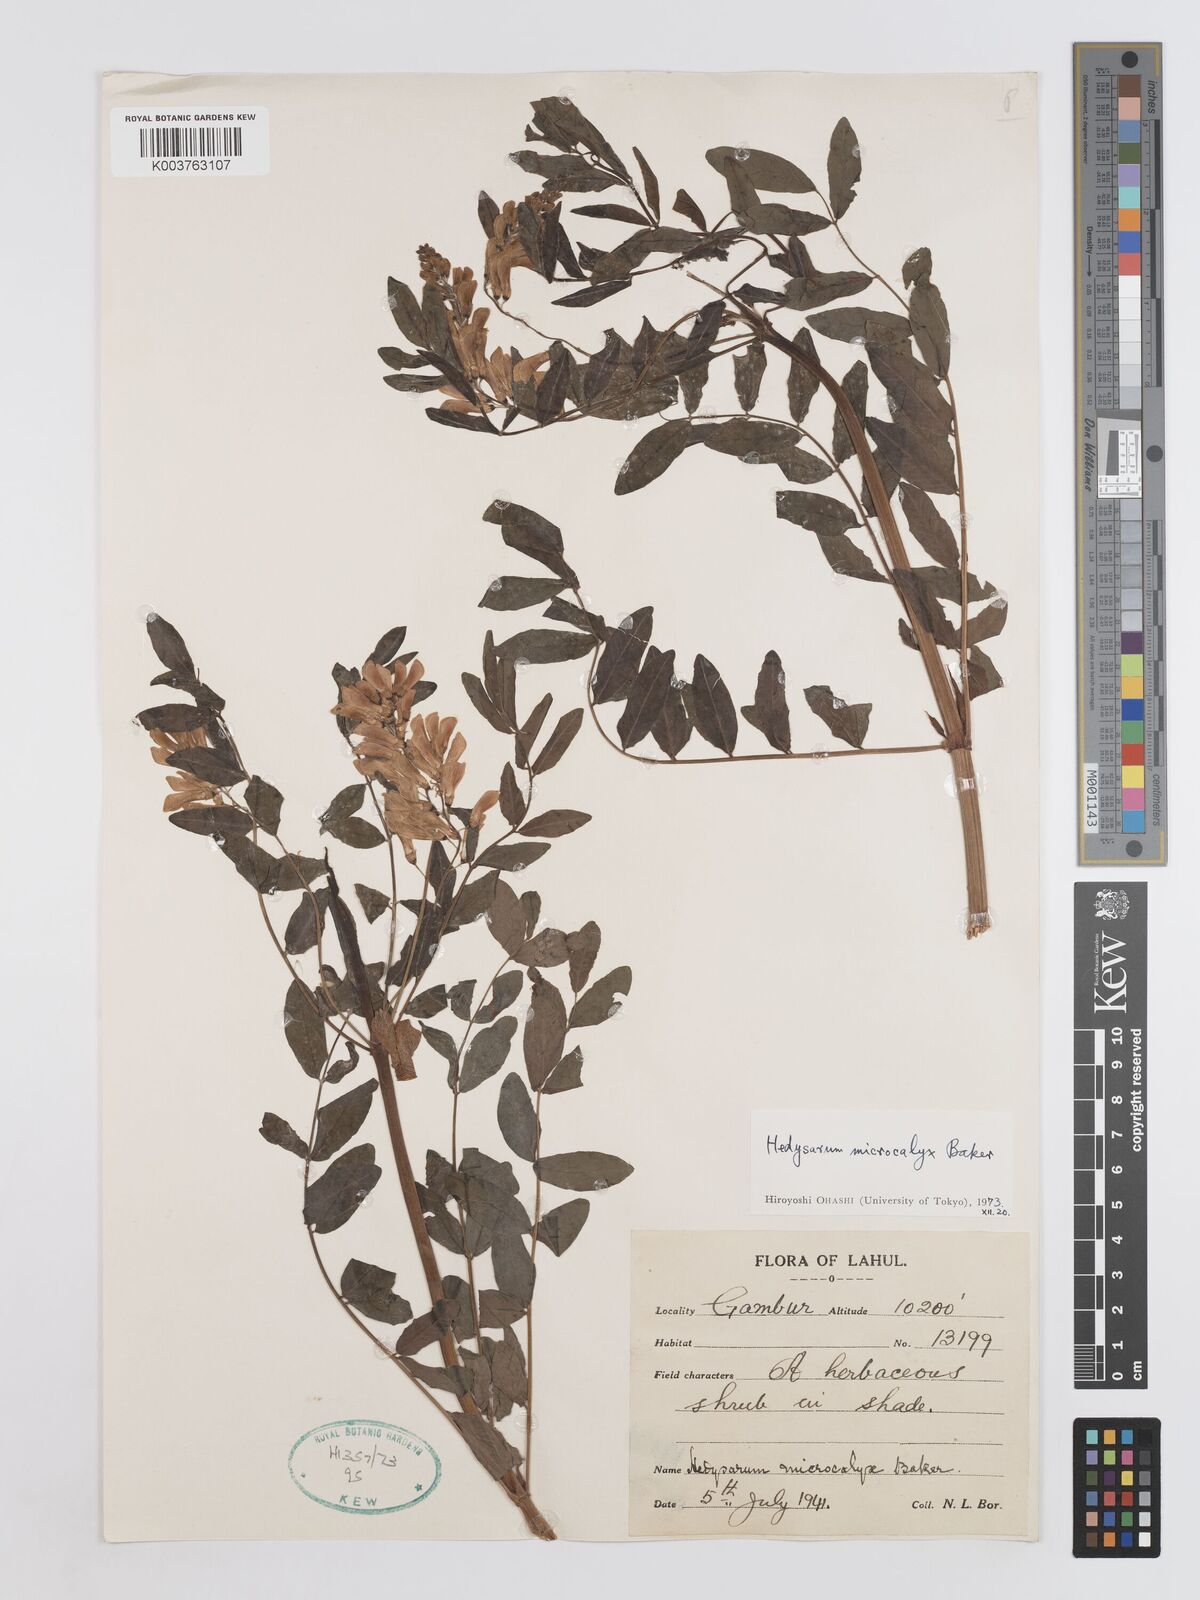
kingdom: Plantae
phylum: Tracheophyta
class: Magnoliopsida
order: Fabales
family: Fabaceae
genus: Hedysarum
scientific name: Hedysarum microcalyx
